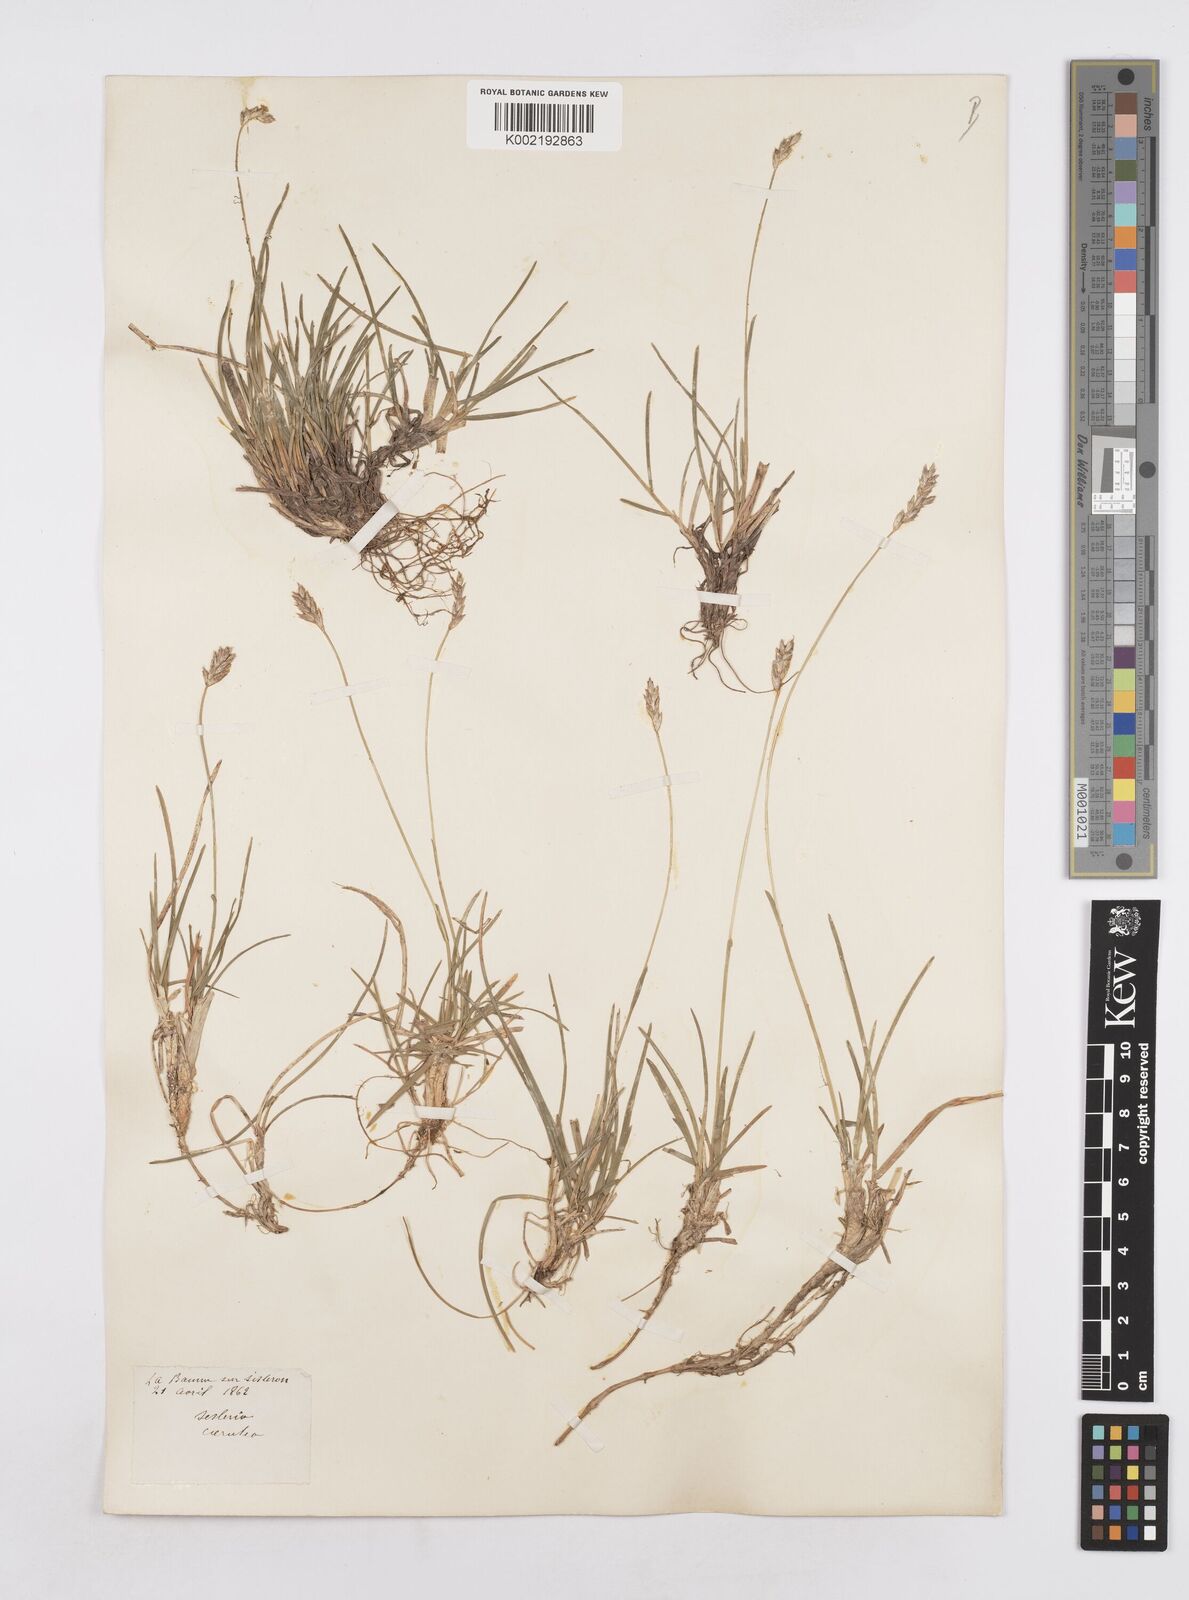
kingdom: Plantae
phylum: Tracheophyta
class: Liliopsida
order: Poales
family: Poaceae
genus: Sesleria
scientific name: Sesleria albicans
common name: Blue moor-grass
